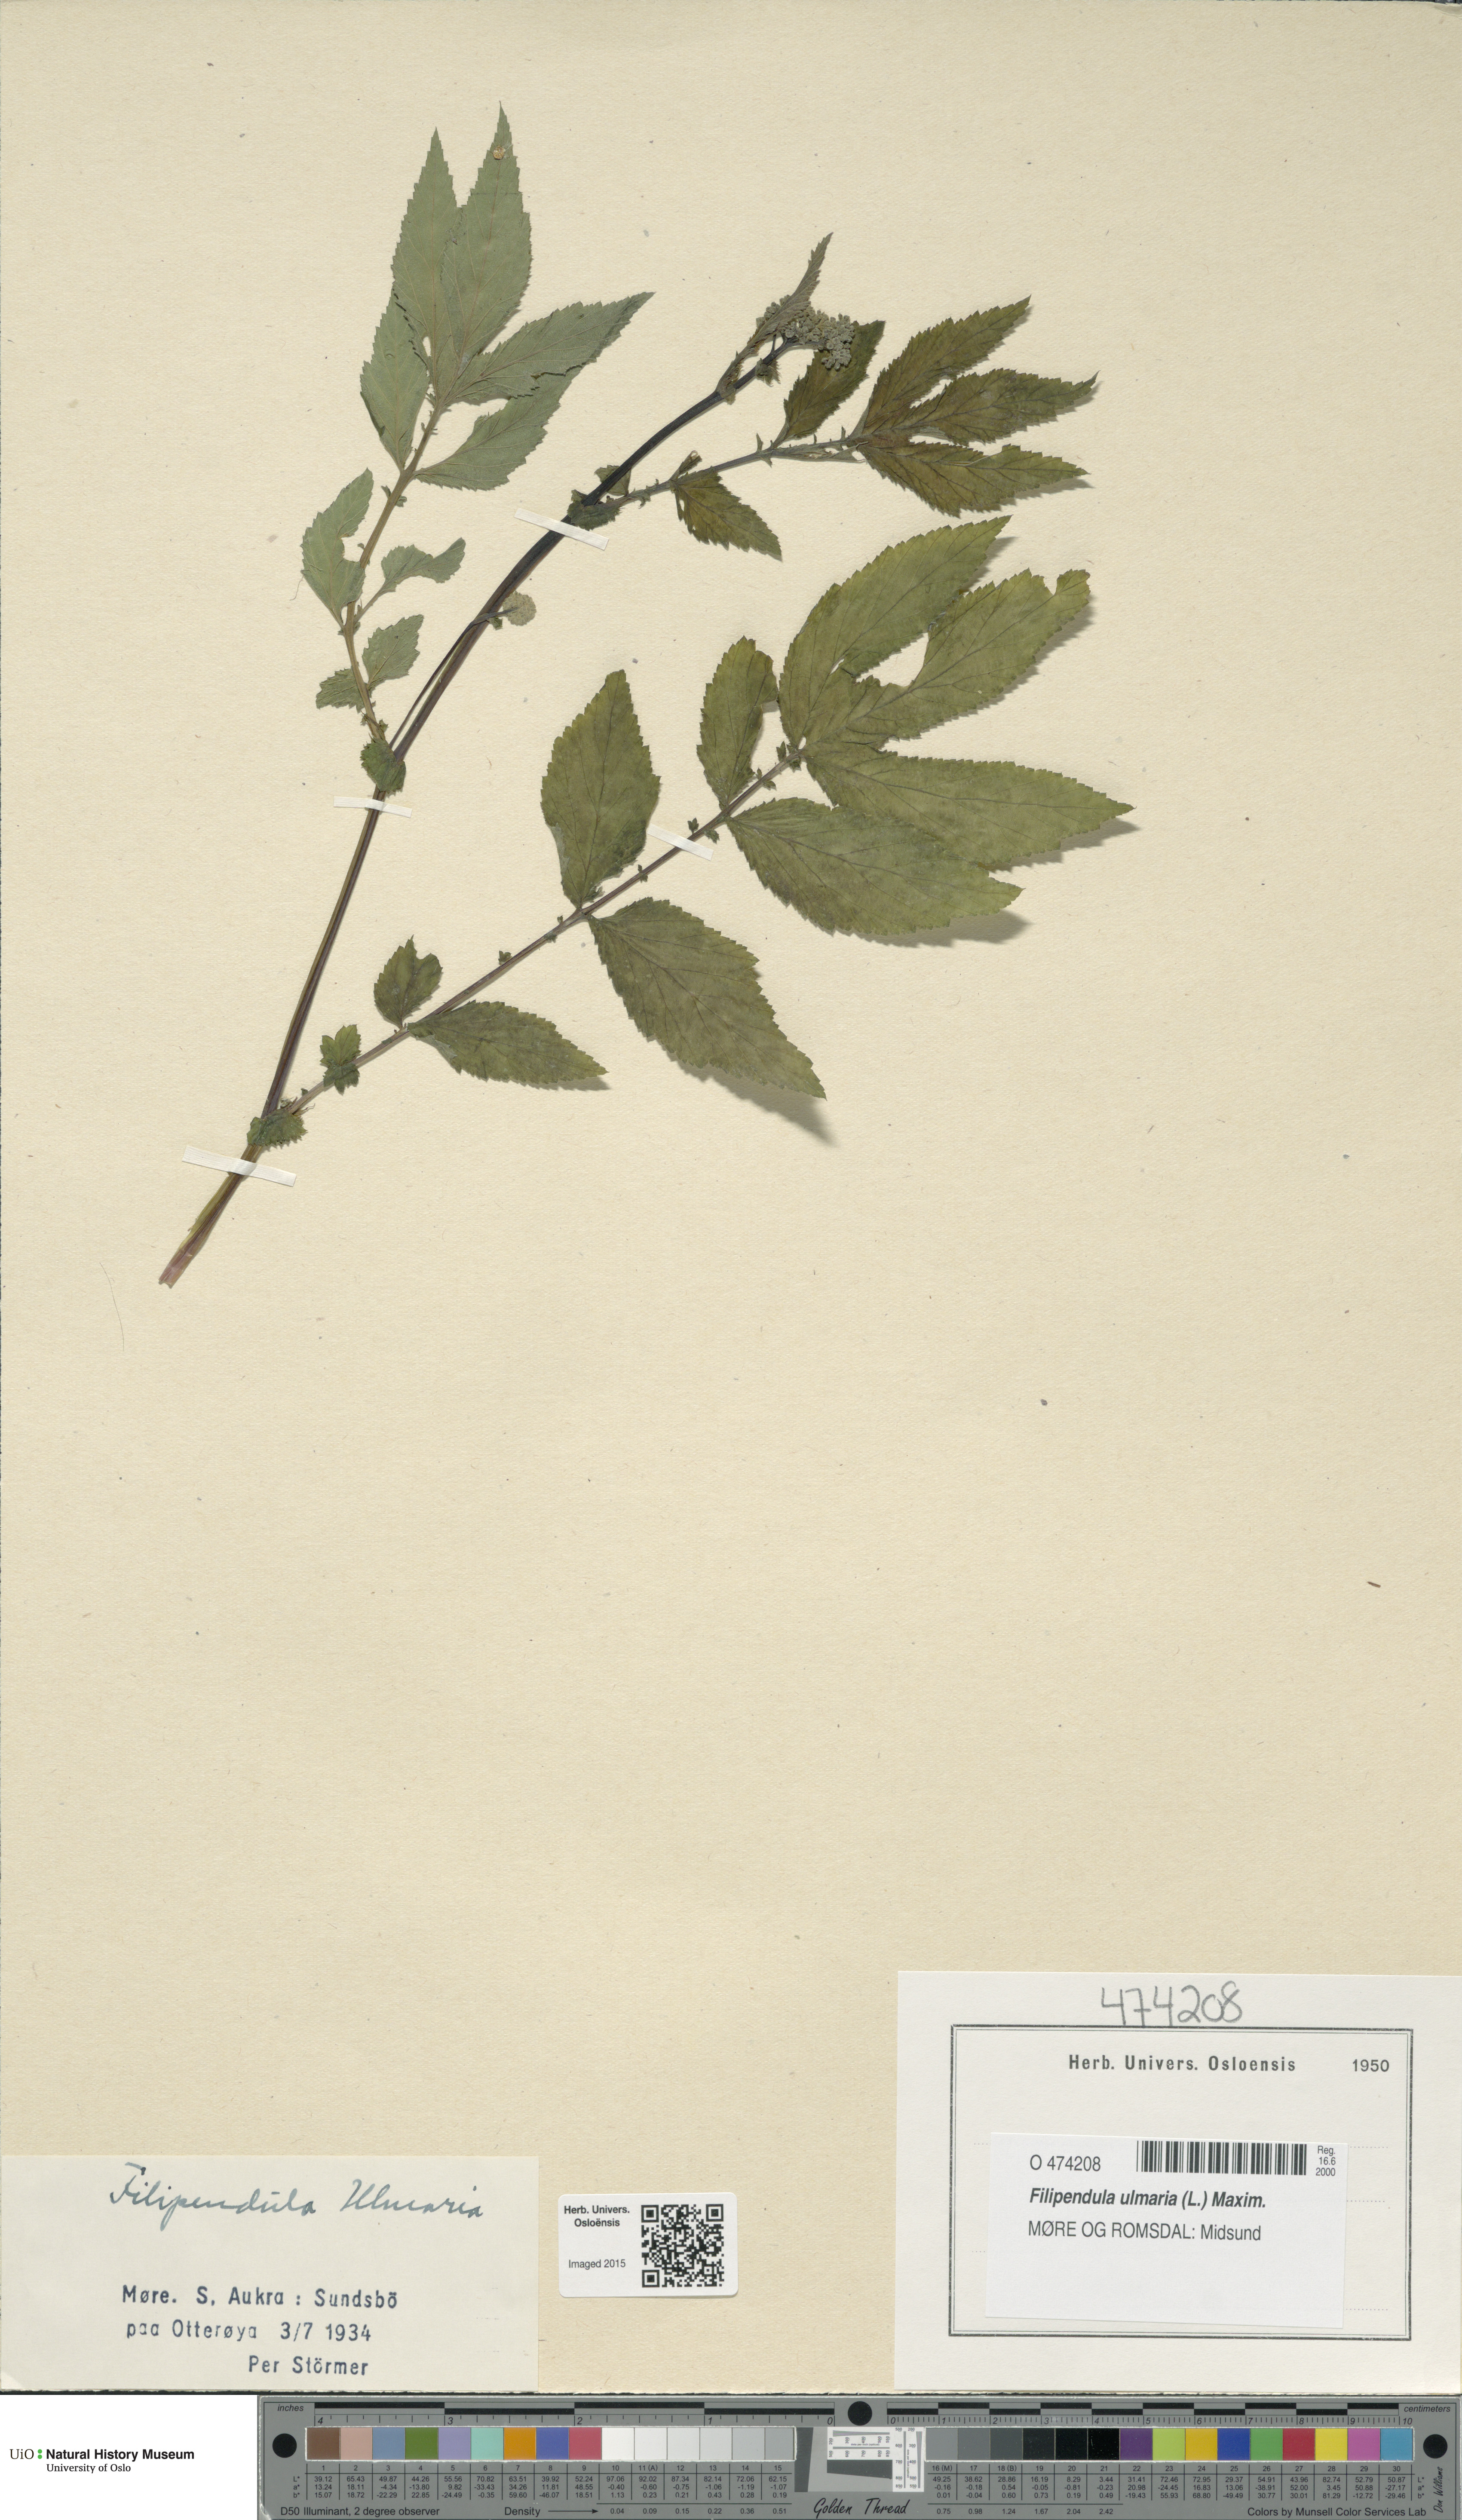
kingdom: Plantae
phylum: Tracheophyta
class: Magnoliopsida
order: Rosales
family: Rosaceae
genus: Filipendula
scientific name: Filipendula ulmaria
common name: Meadowsweet
